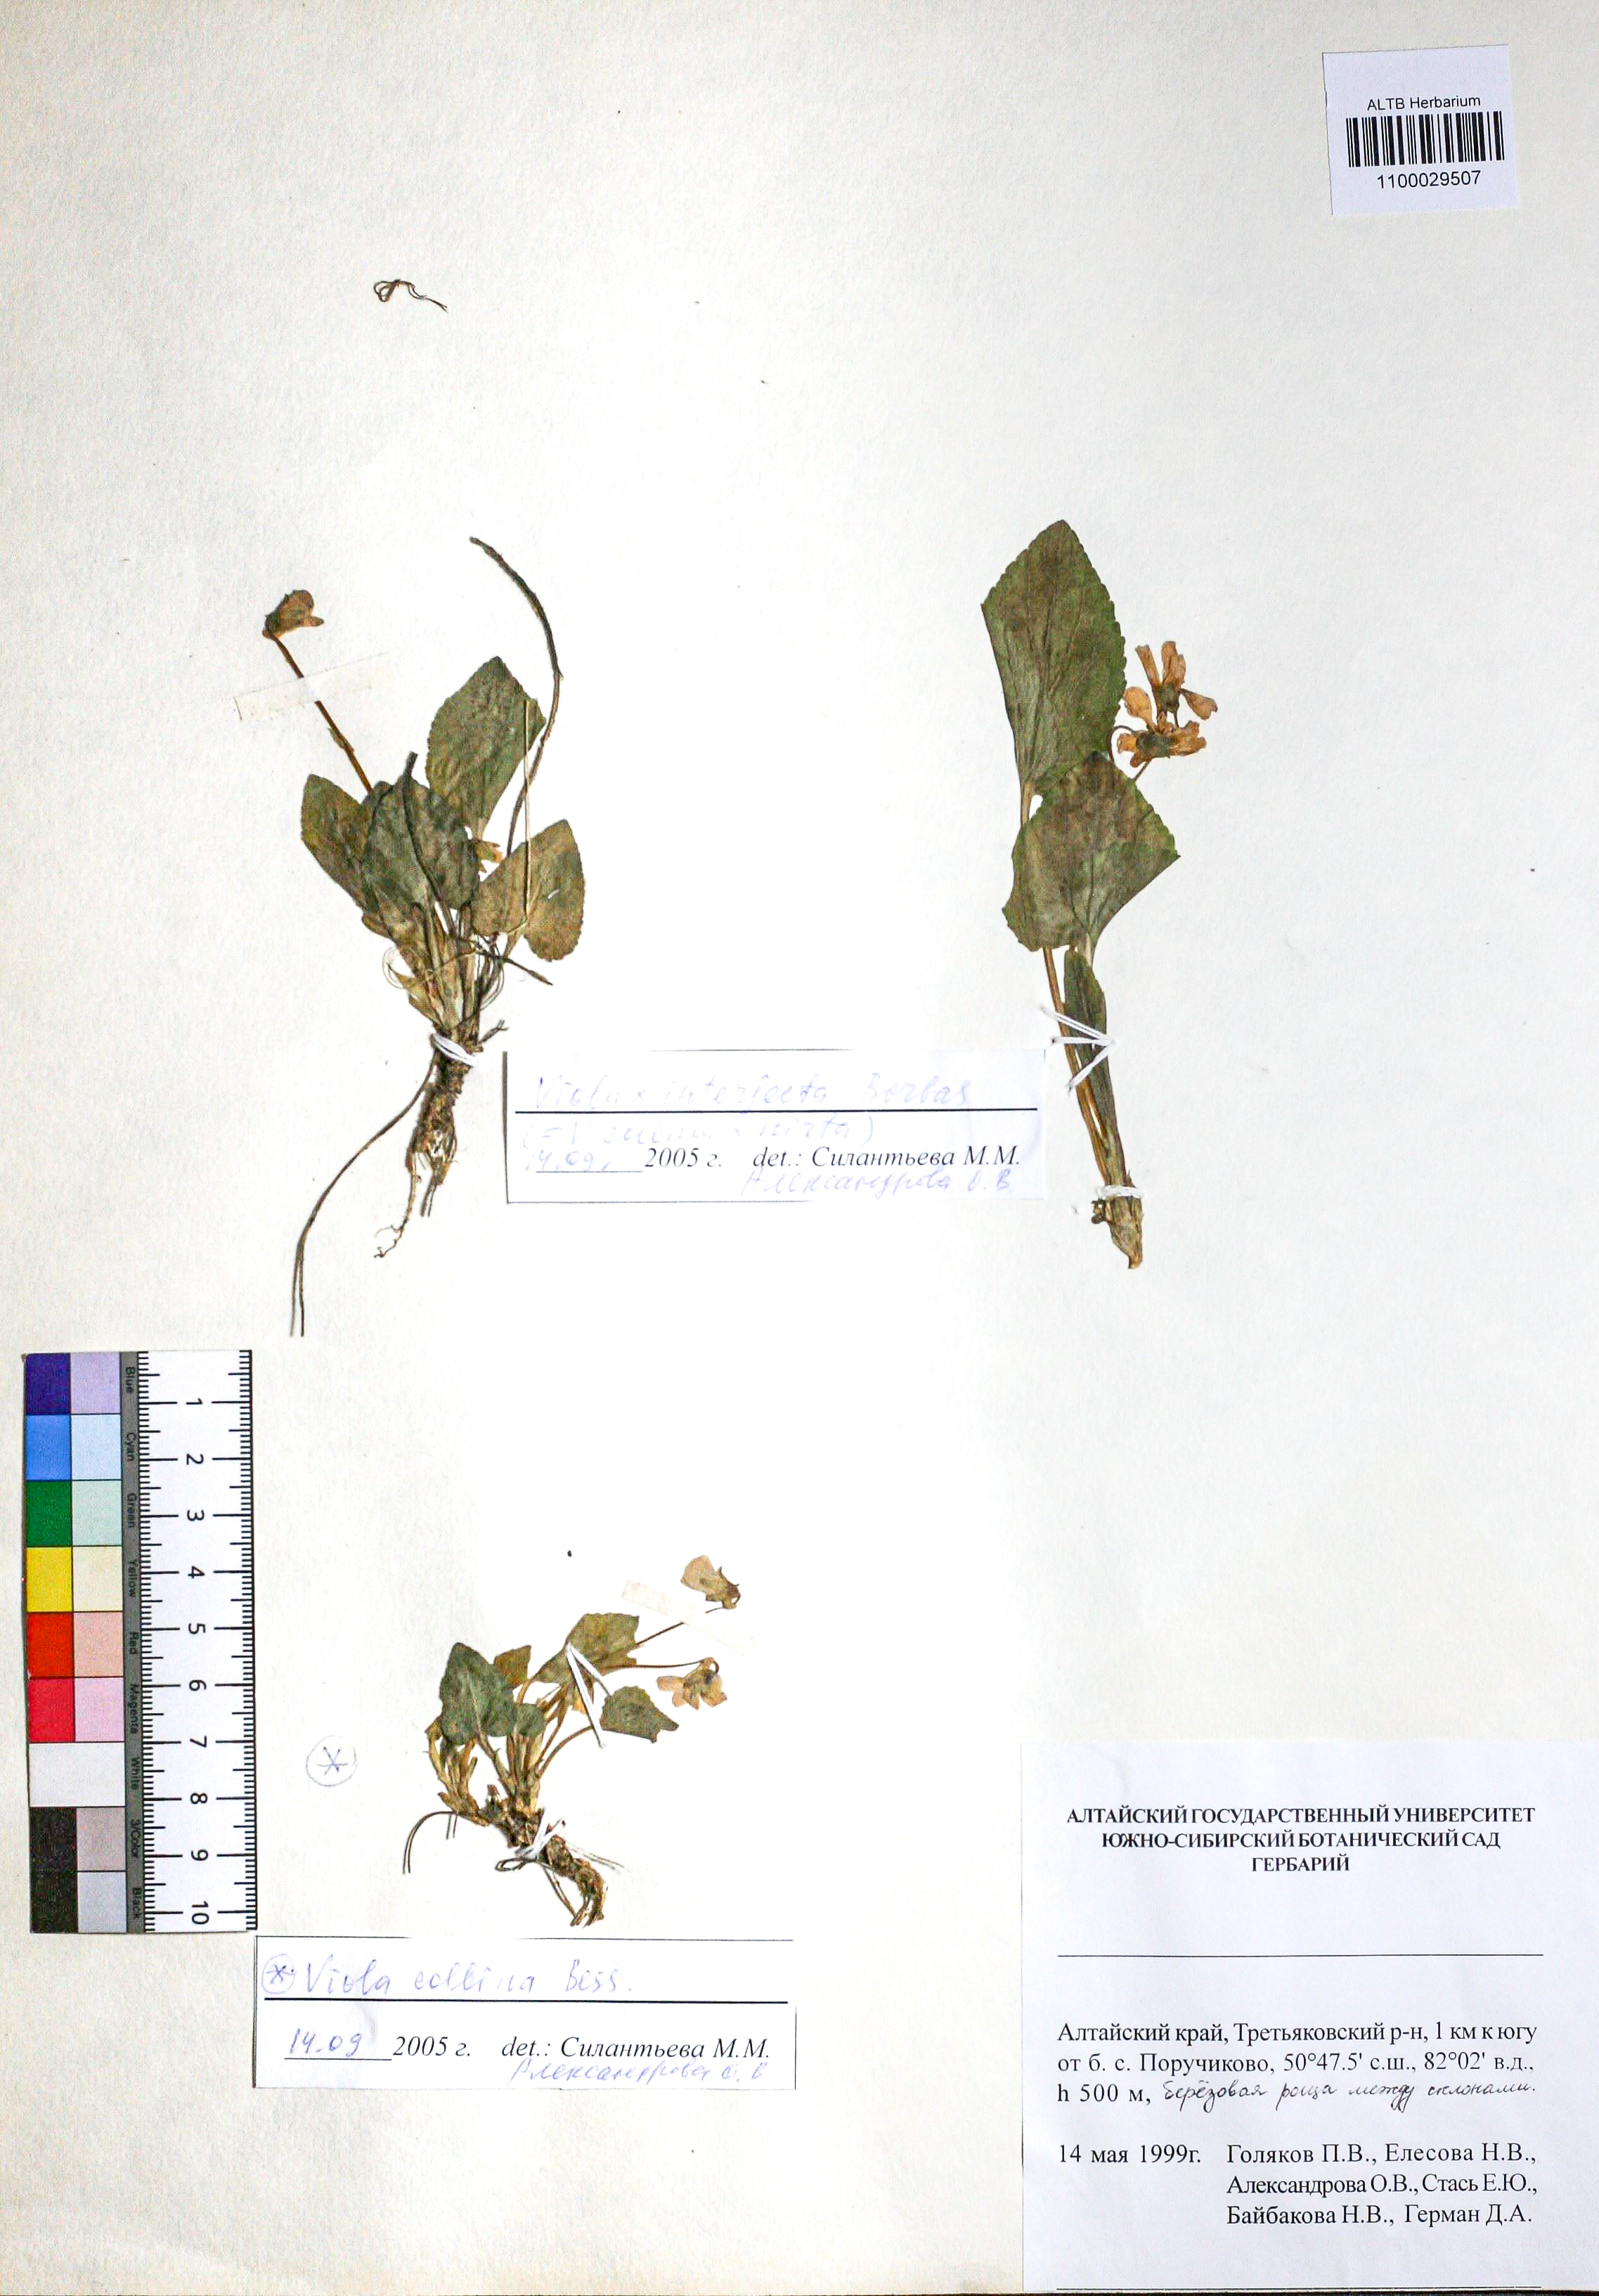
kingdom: Plantae
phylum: Tracheophyta
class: Magnoliopsida
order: Malpighiales
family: Violaceae
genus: Viola
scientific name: Viola interjecta
